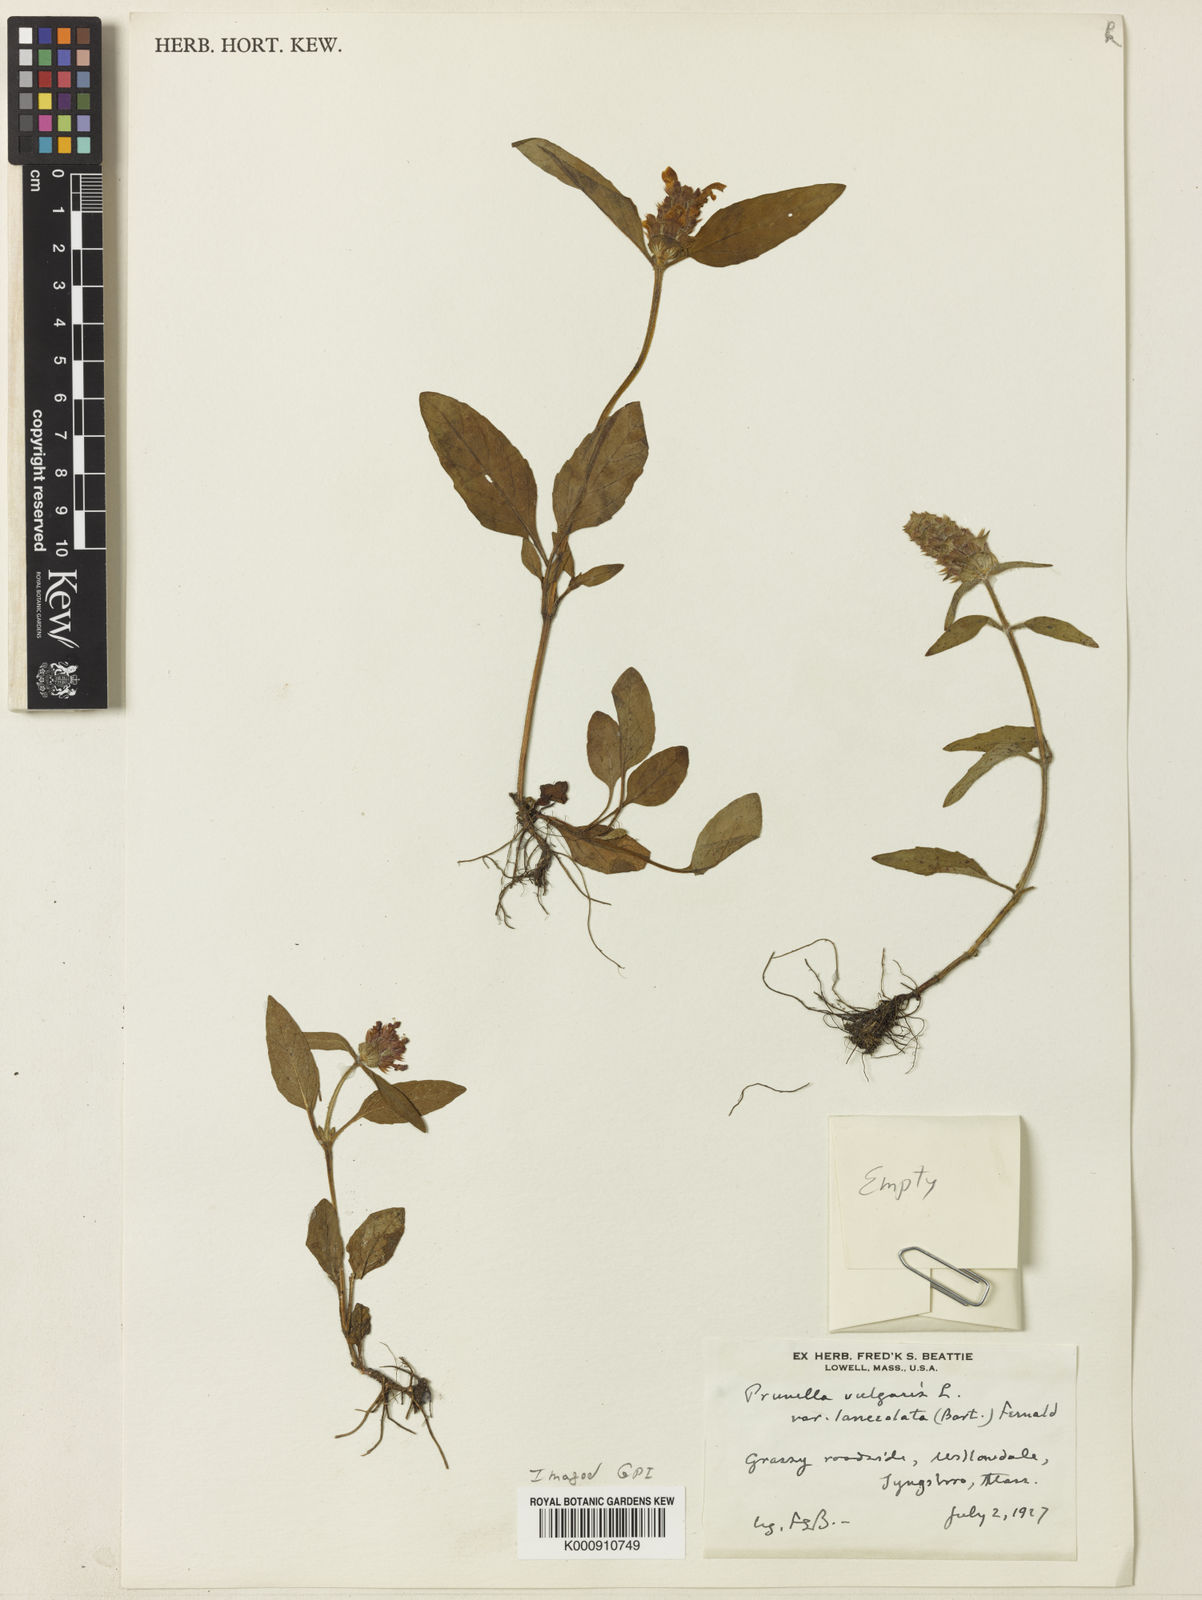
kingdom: Plantae
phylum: Tracheophyta
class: Magnoliopsida
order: Lamiales
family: Lamiaceae
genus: Prunella
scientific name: Prunella vulgaris
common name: Heal-all
